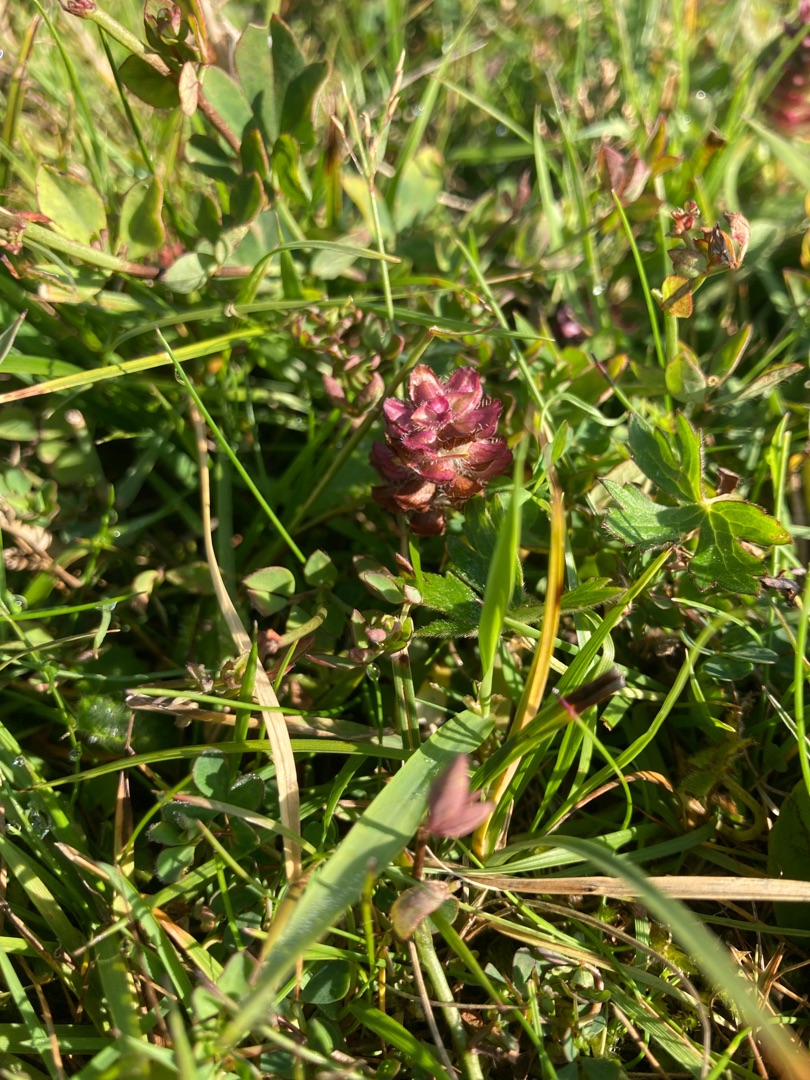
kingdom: Plantae
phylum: Tracheophyta
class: Magnoliopsida
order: Lamiales
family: Lamiaceae
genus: Prunella
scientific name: Prunella vulgaris
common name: Almindelig brunelle
